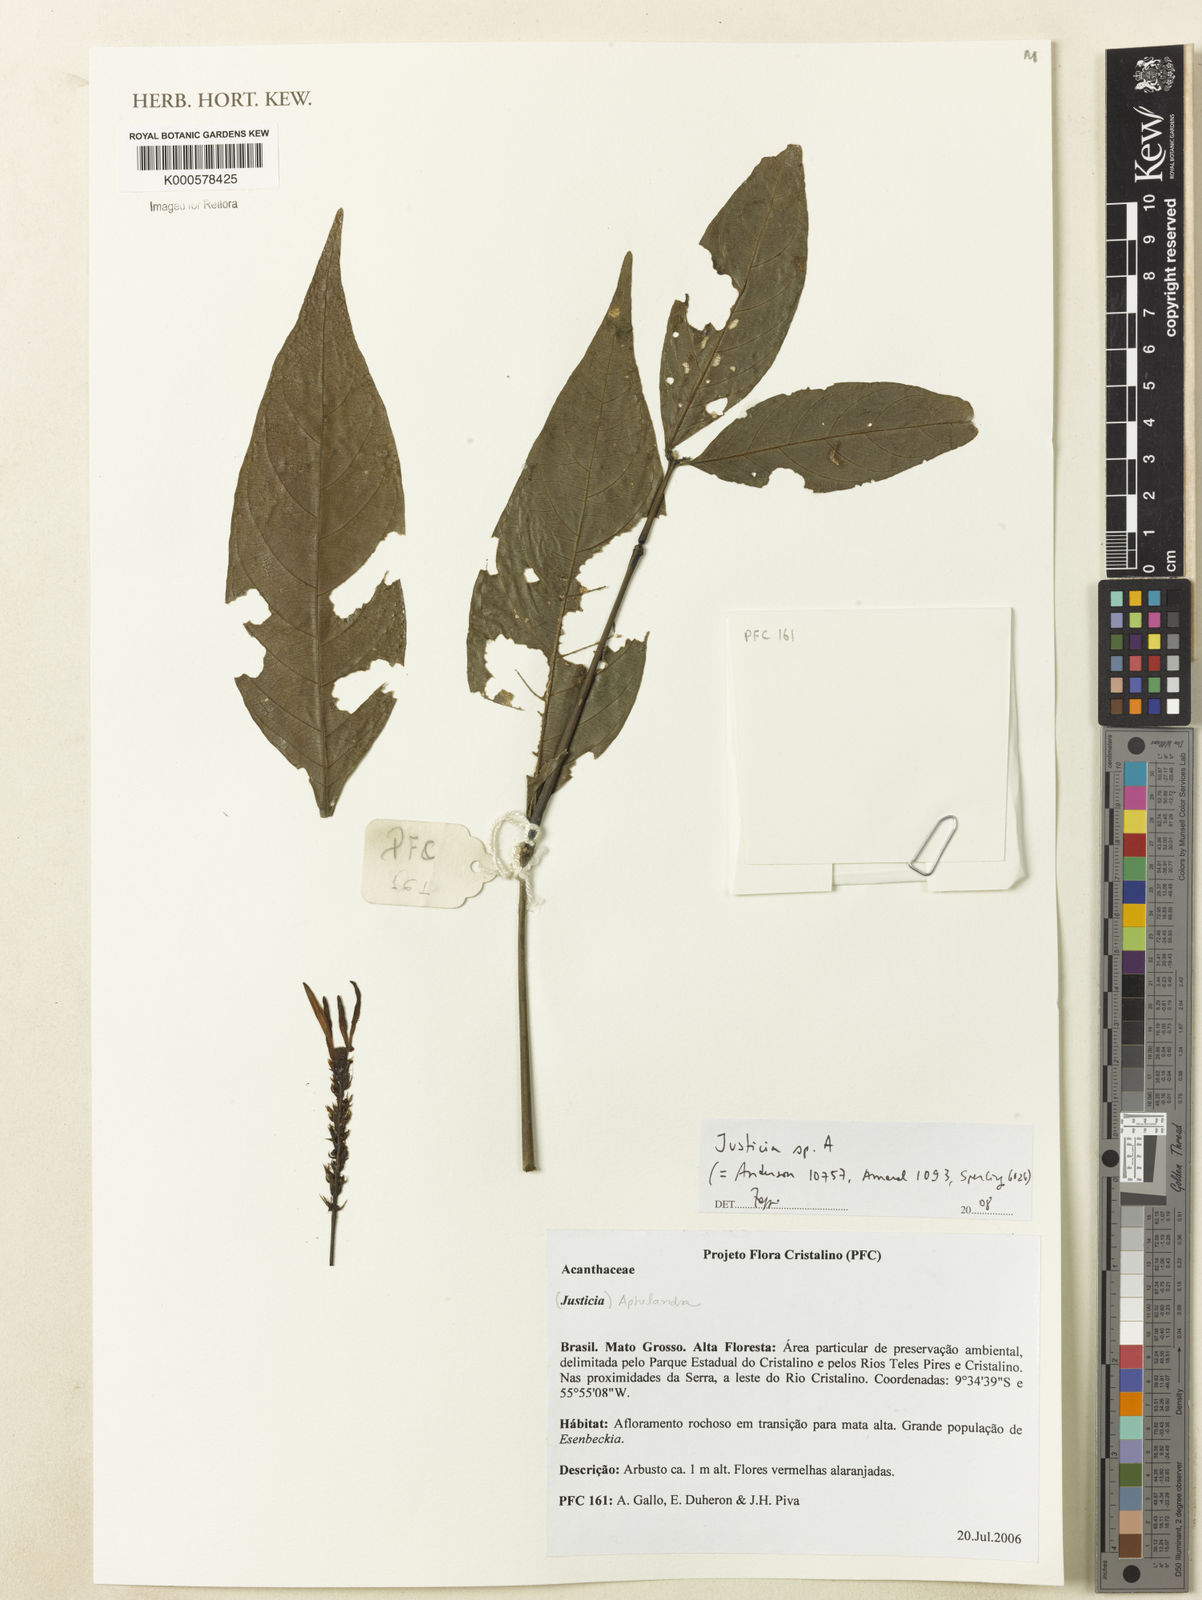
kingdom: Plantae
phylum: Tracheophyta
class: Magnoliopsida
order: Lamiales
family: Acanthaceae
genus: Justicia
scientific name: Justicia
